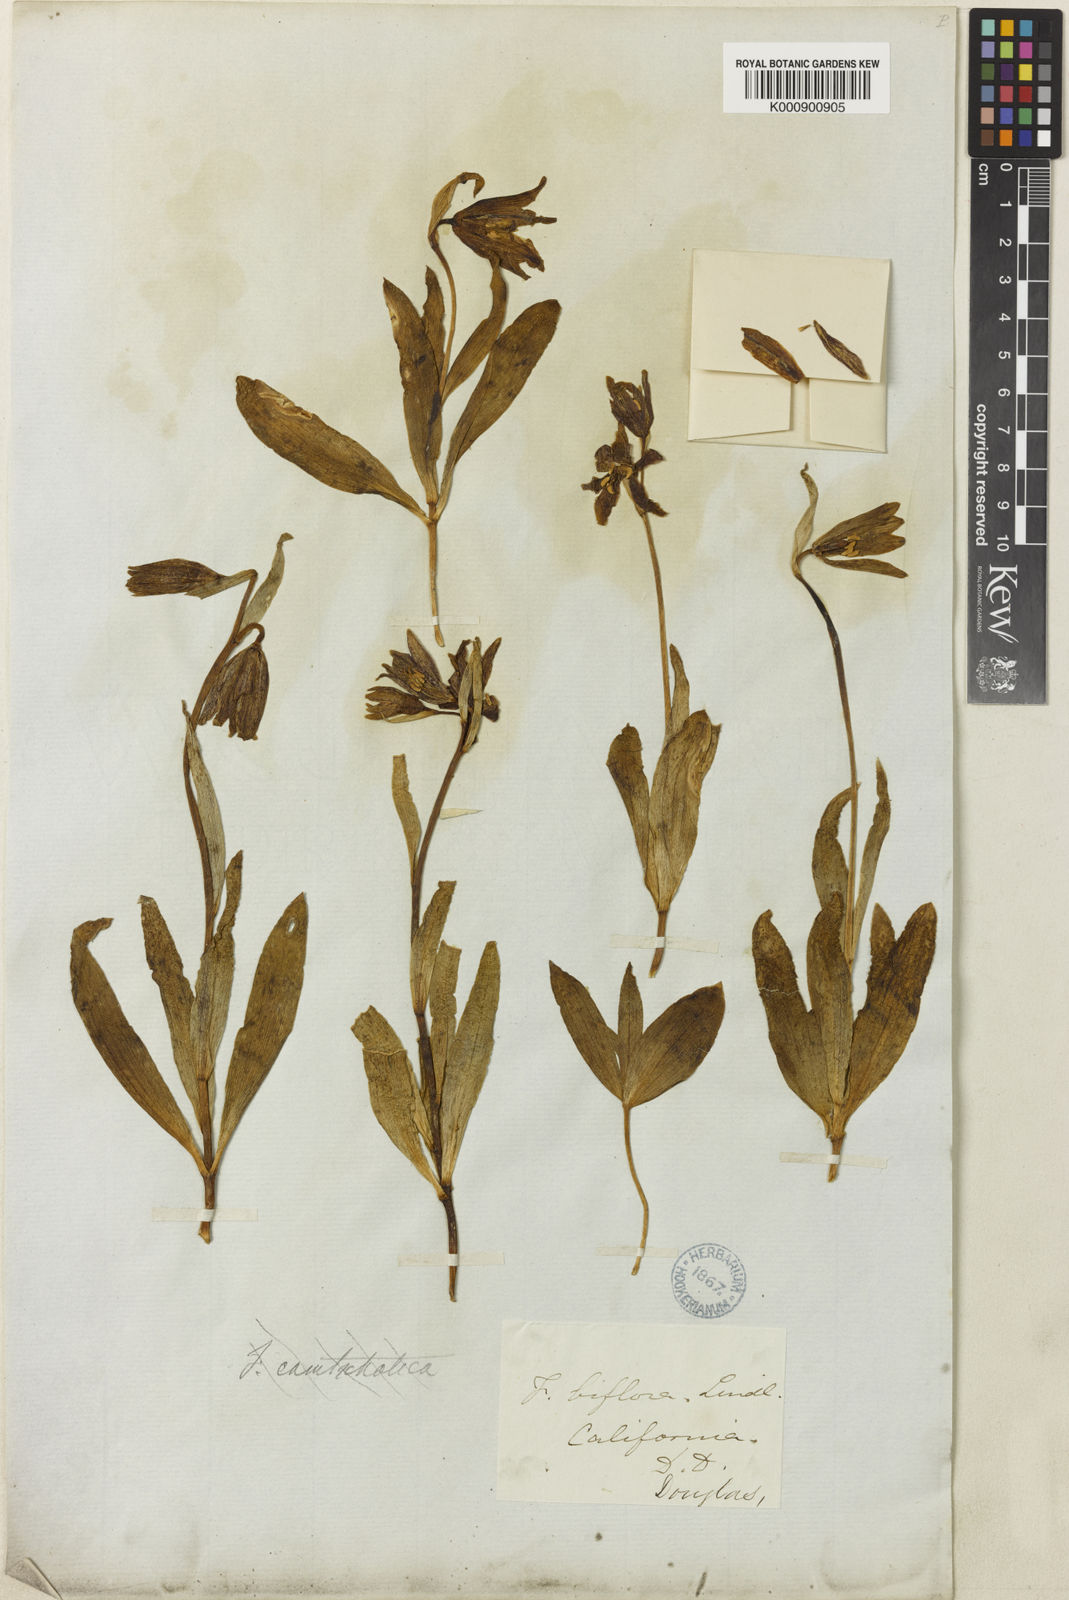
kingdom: Plantae
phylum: Tracheophyta
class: Liliopsida
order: Liliales
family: Liliaceae
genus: Fritillaria
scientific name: Fritillaria biflora
